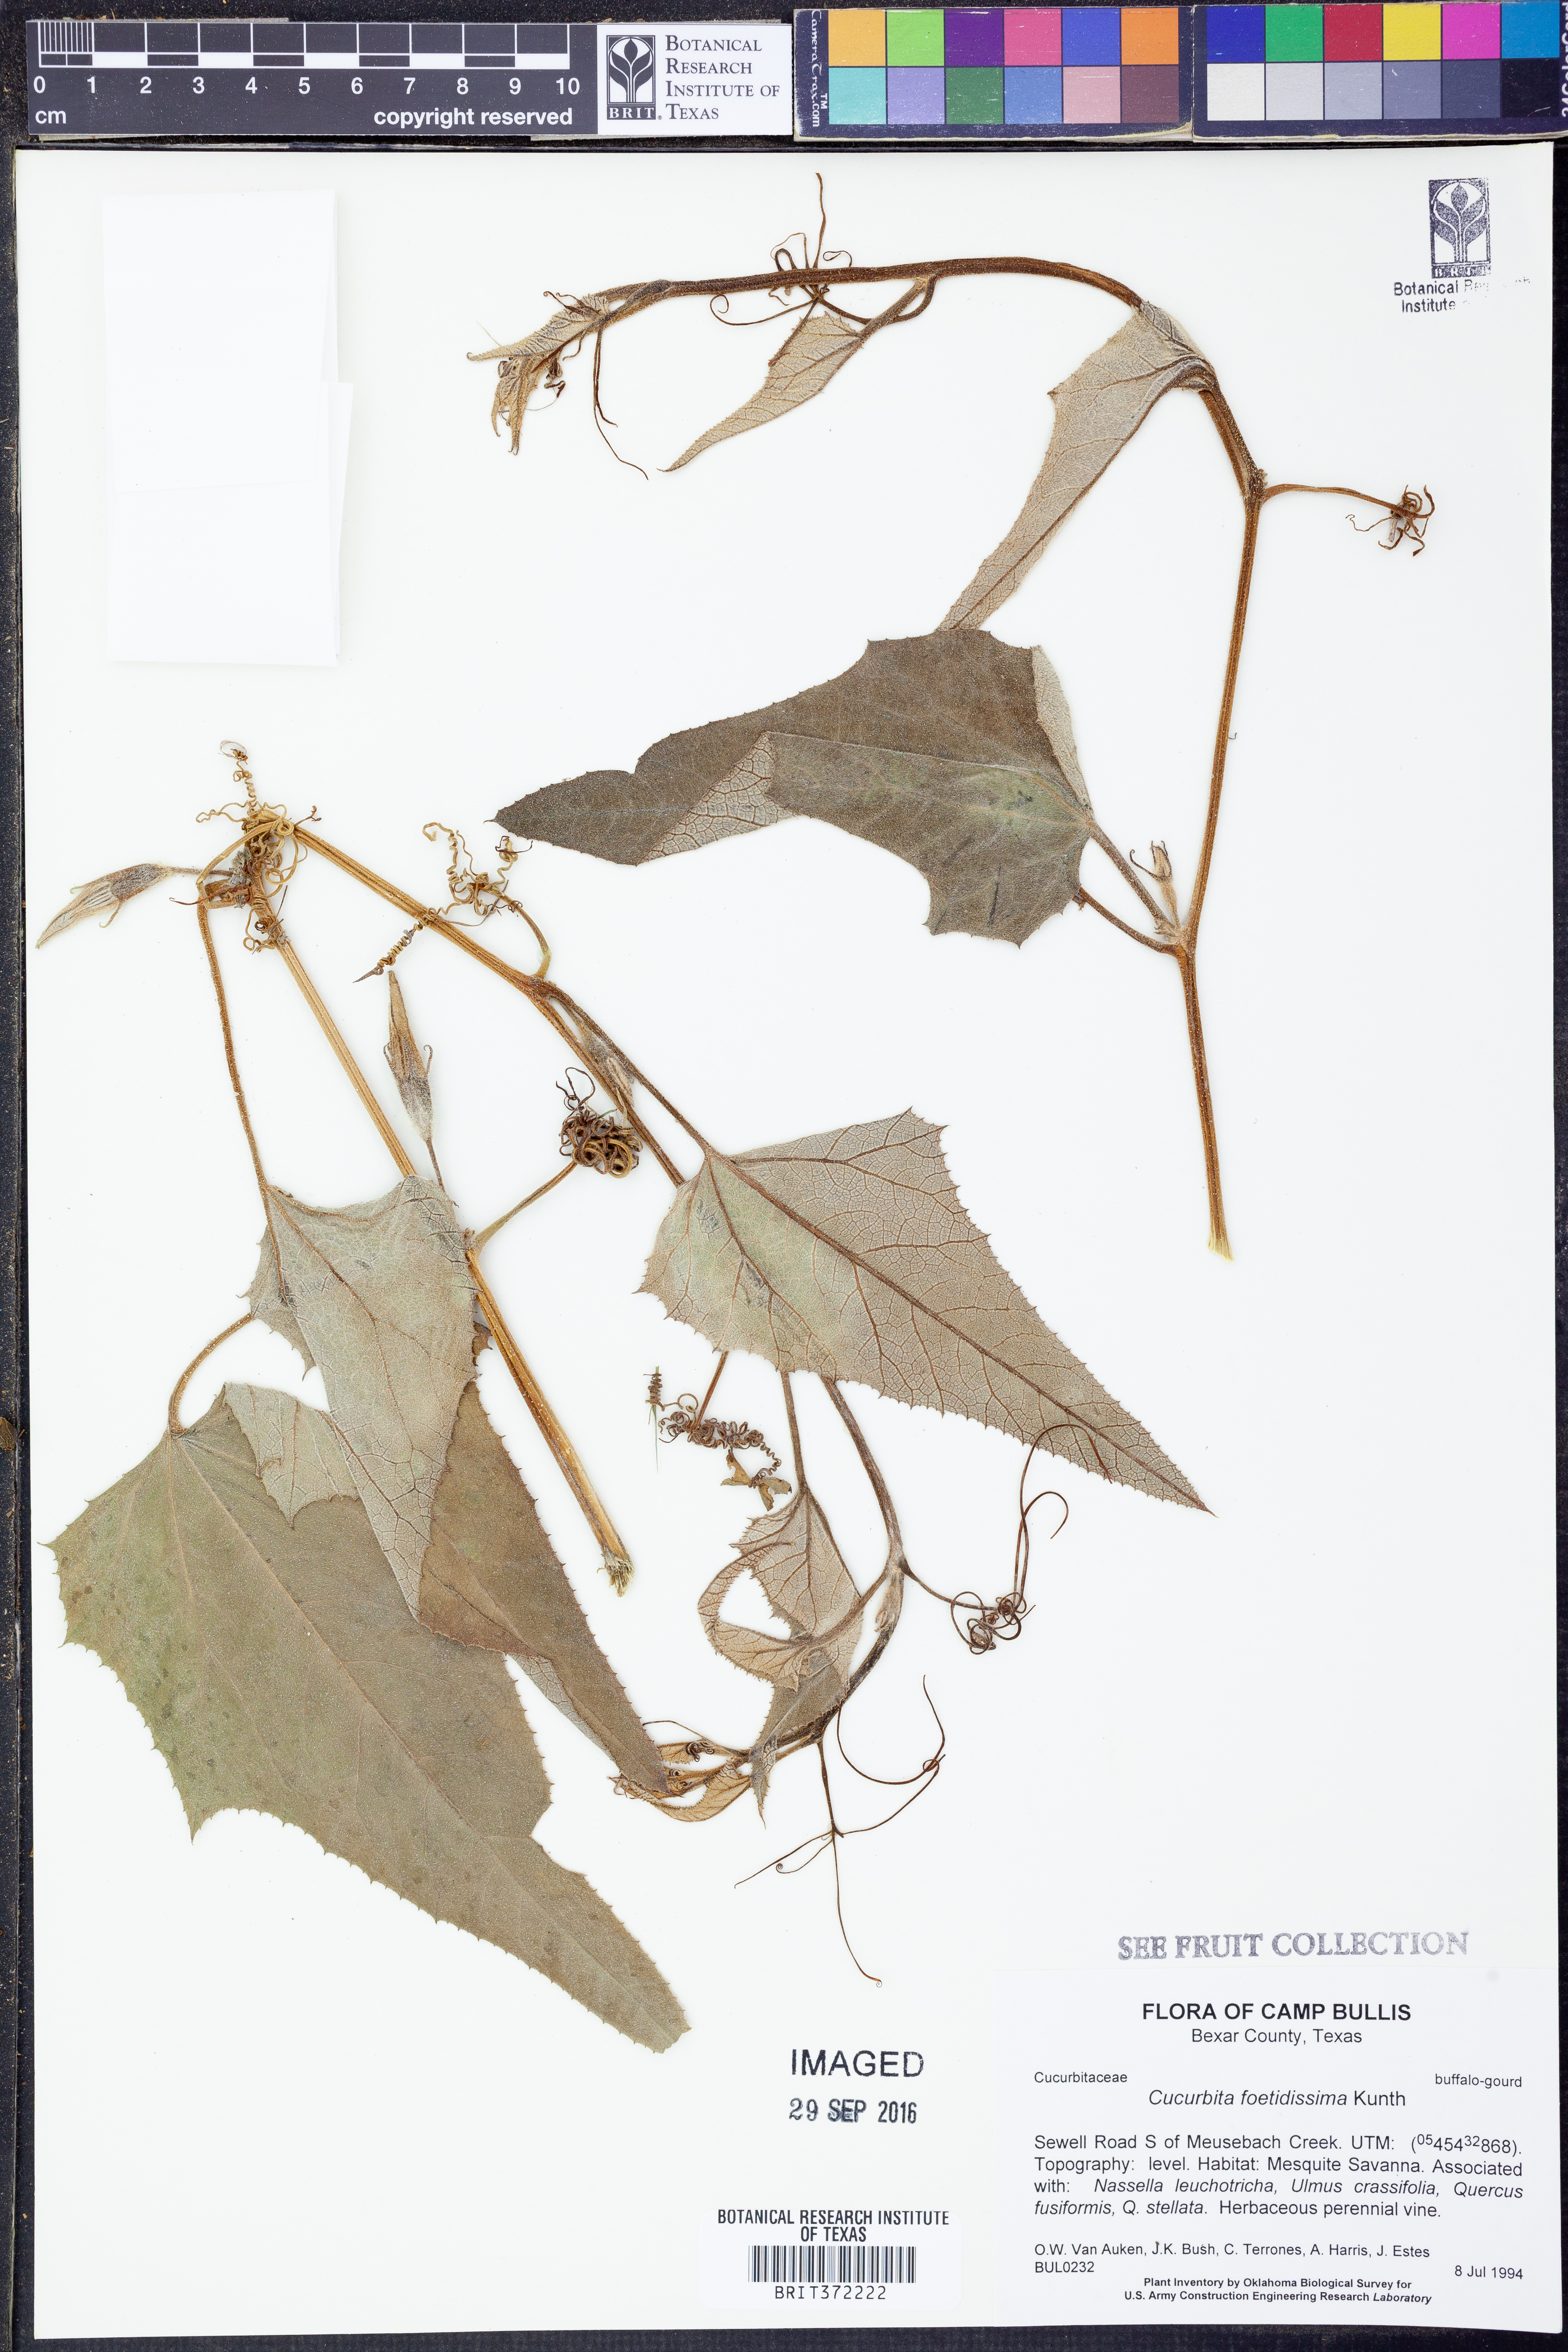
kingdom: Plantae
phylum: Tracheophyta
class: Magnoliopsida
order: Cucurbitales
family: Cucurbitaceae
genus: Cucurbita
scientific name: Cucurbita foetidissima
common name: Buffalo gourd
